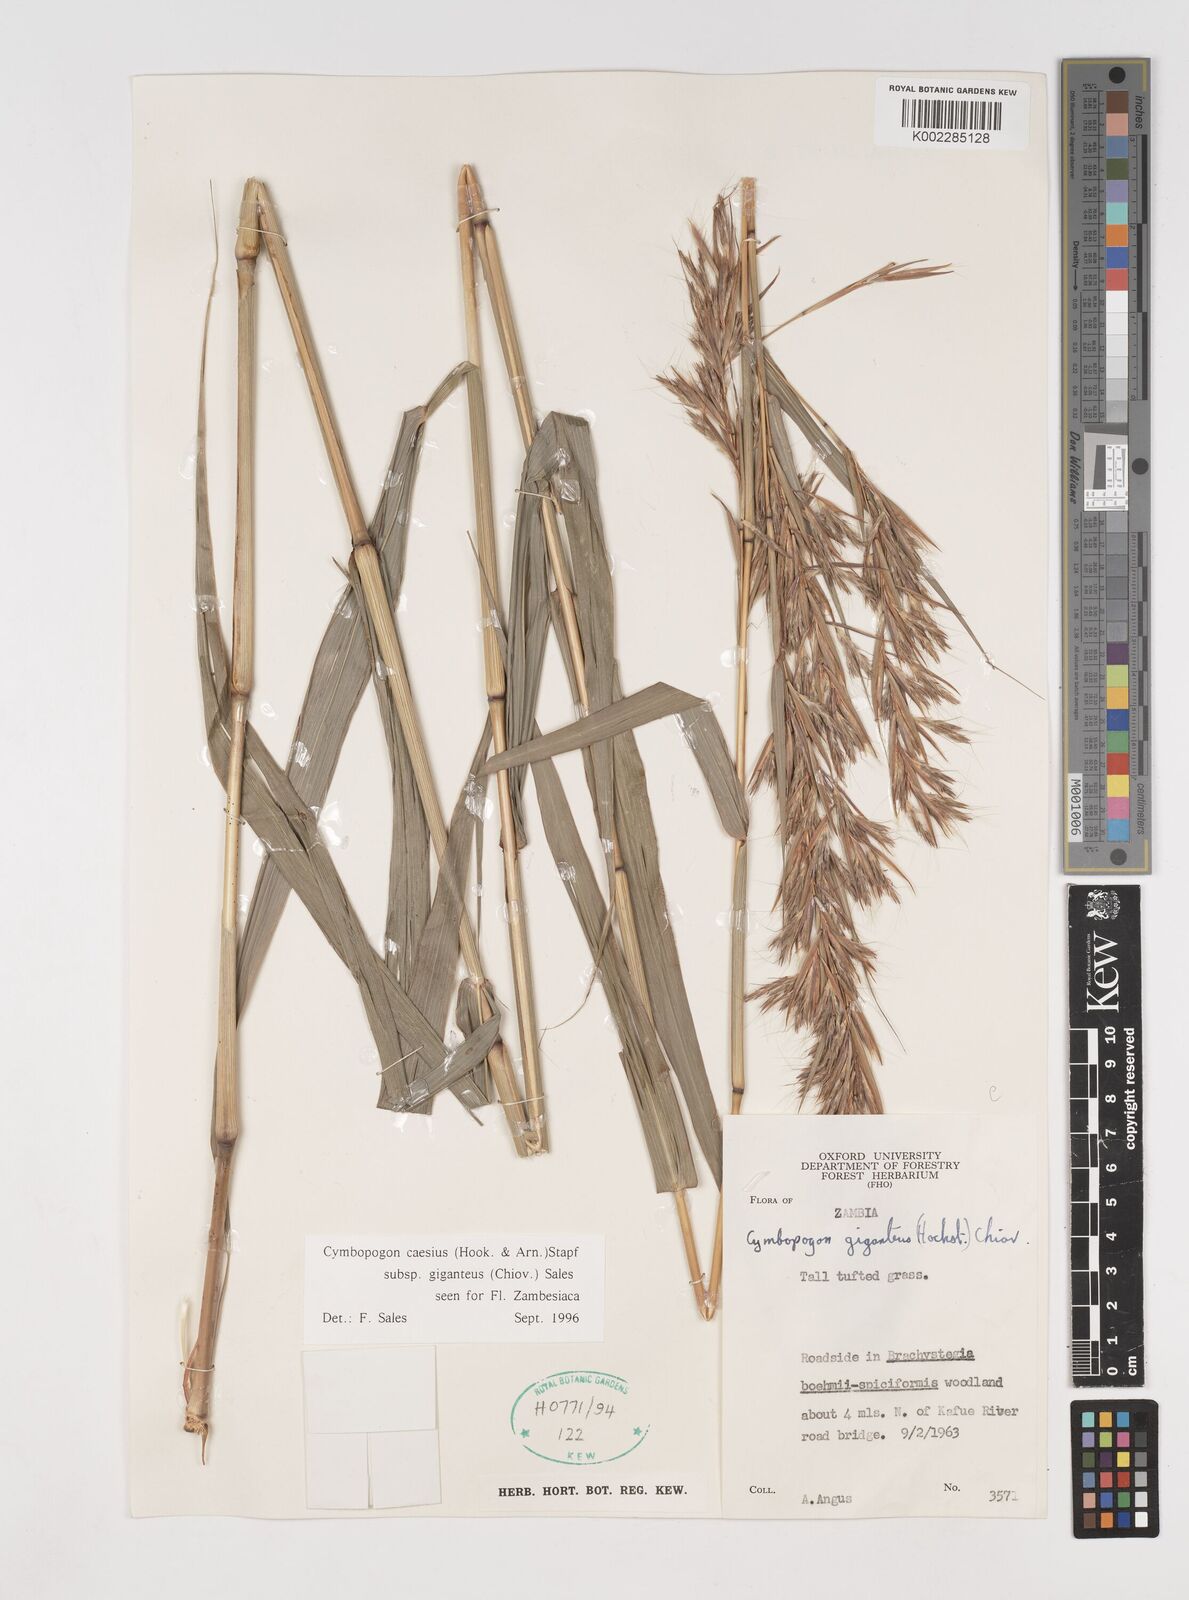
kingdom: Plantae
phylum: Tracheophyta
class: Liliopsida
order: Poales
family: Poaceae
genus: Cymbopogon
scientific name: Cymbopogon giganteus
